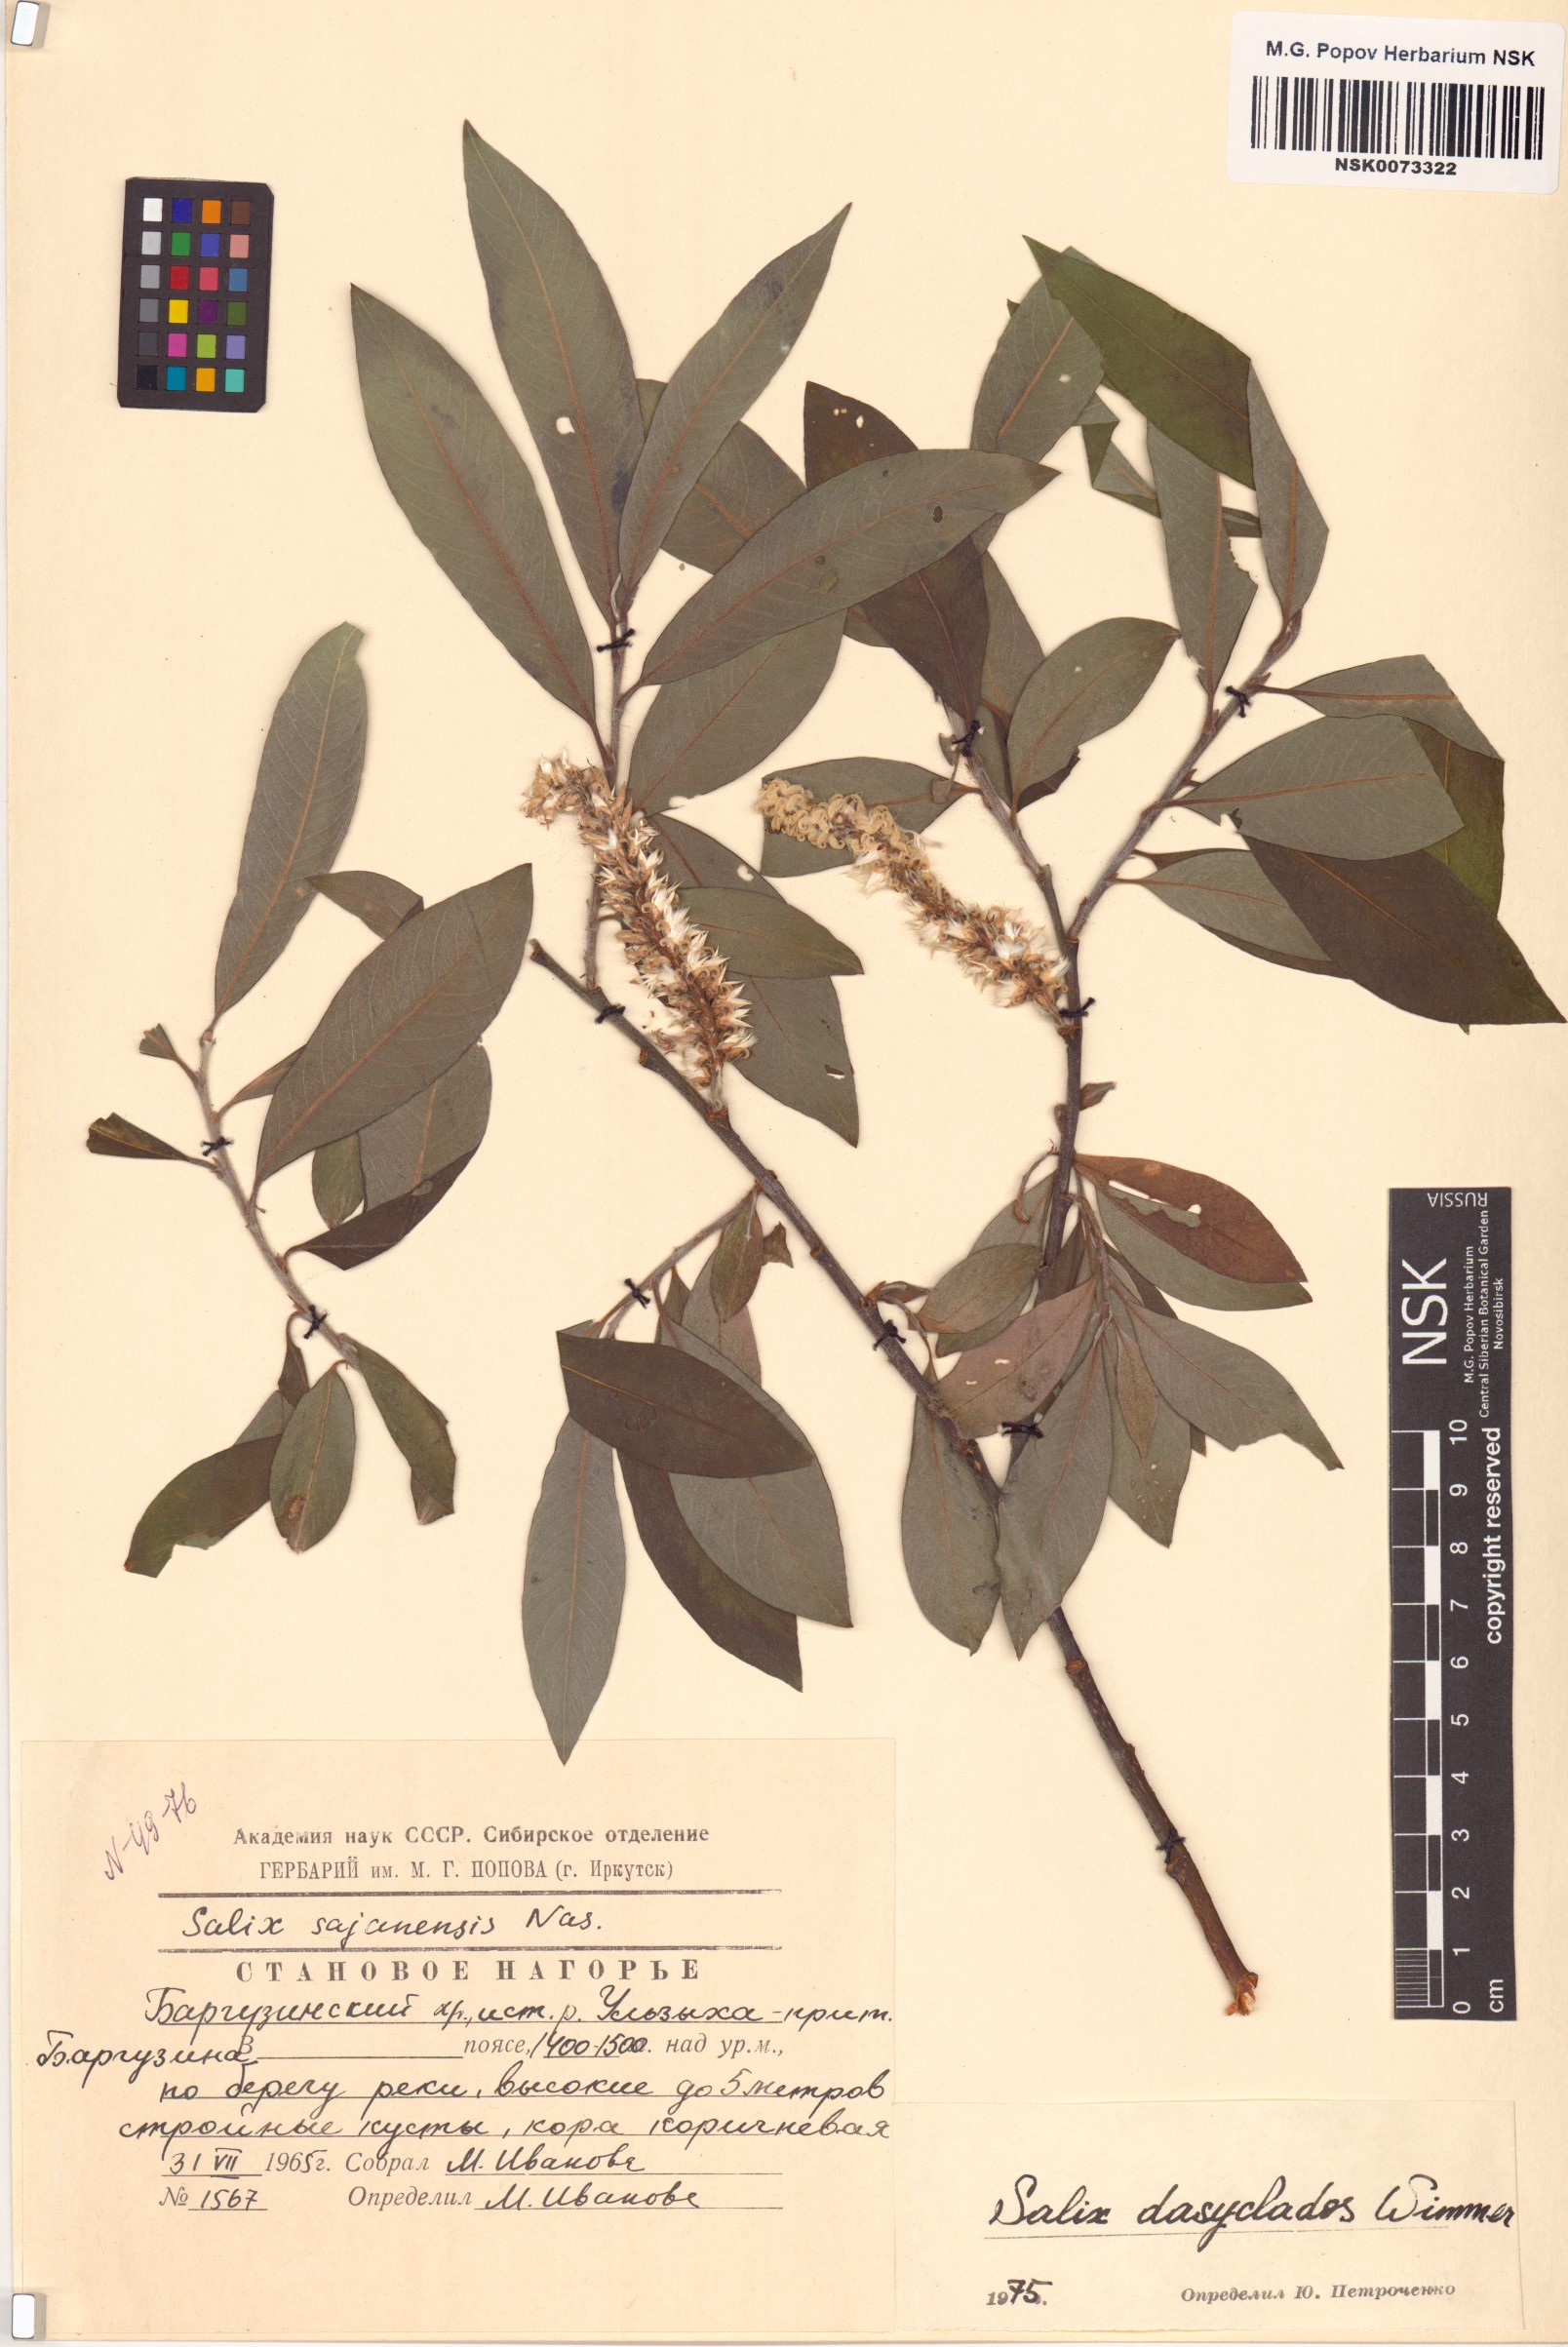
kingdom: Plantae
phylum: Tracheophyta
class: Magnoliopsida
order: Malpighiales
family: Salicaceae
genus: Salix
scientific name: Salix gmelinii
